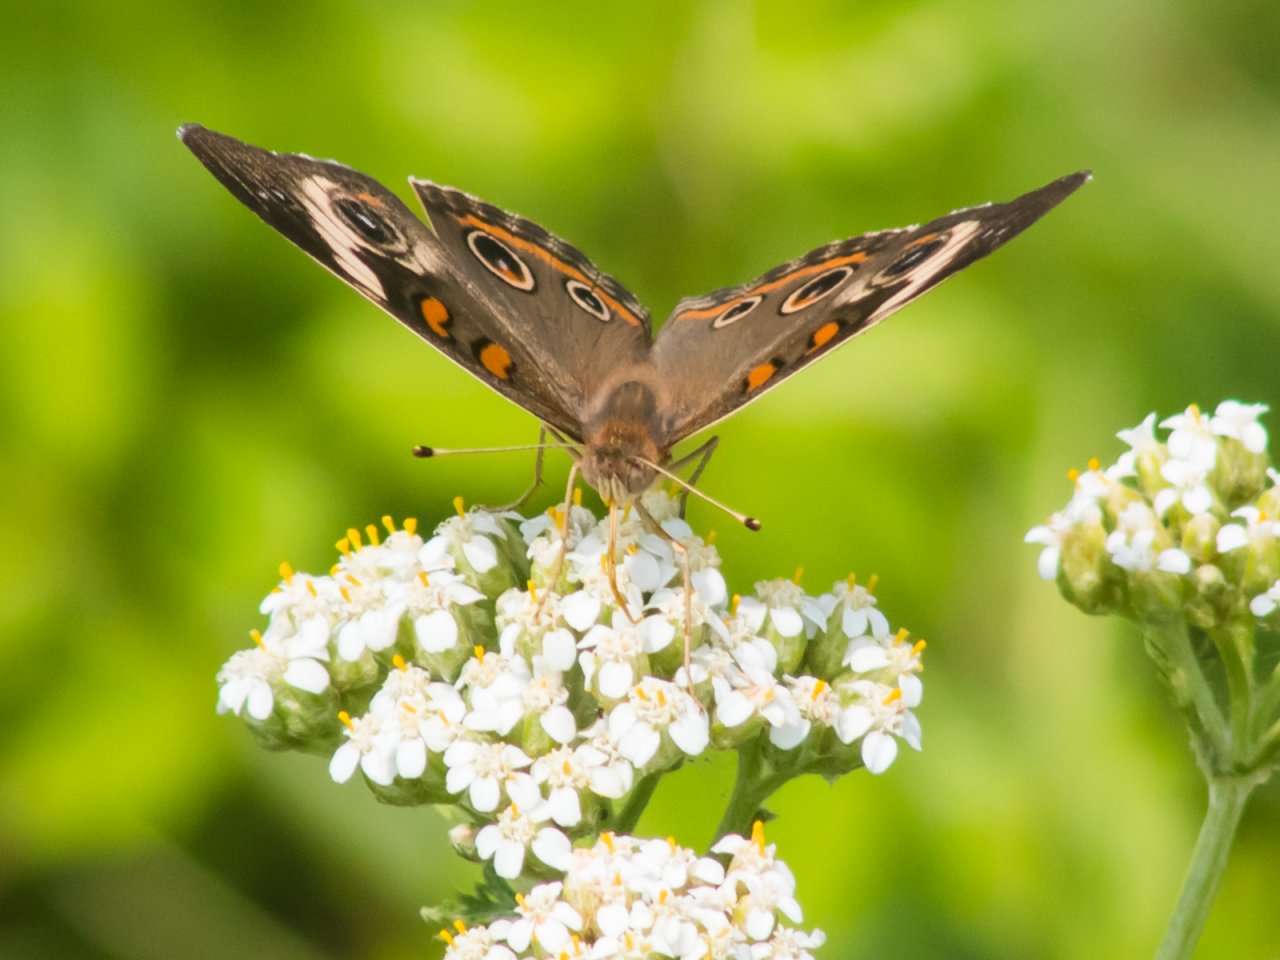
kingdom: Animalia
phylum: Arthropoda
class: Insecta
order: Lepidoptera
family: Nymphalidae
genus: Junonia
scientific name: Junonia coenia
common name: Common Buckeye
